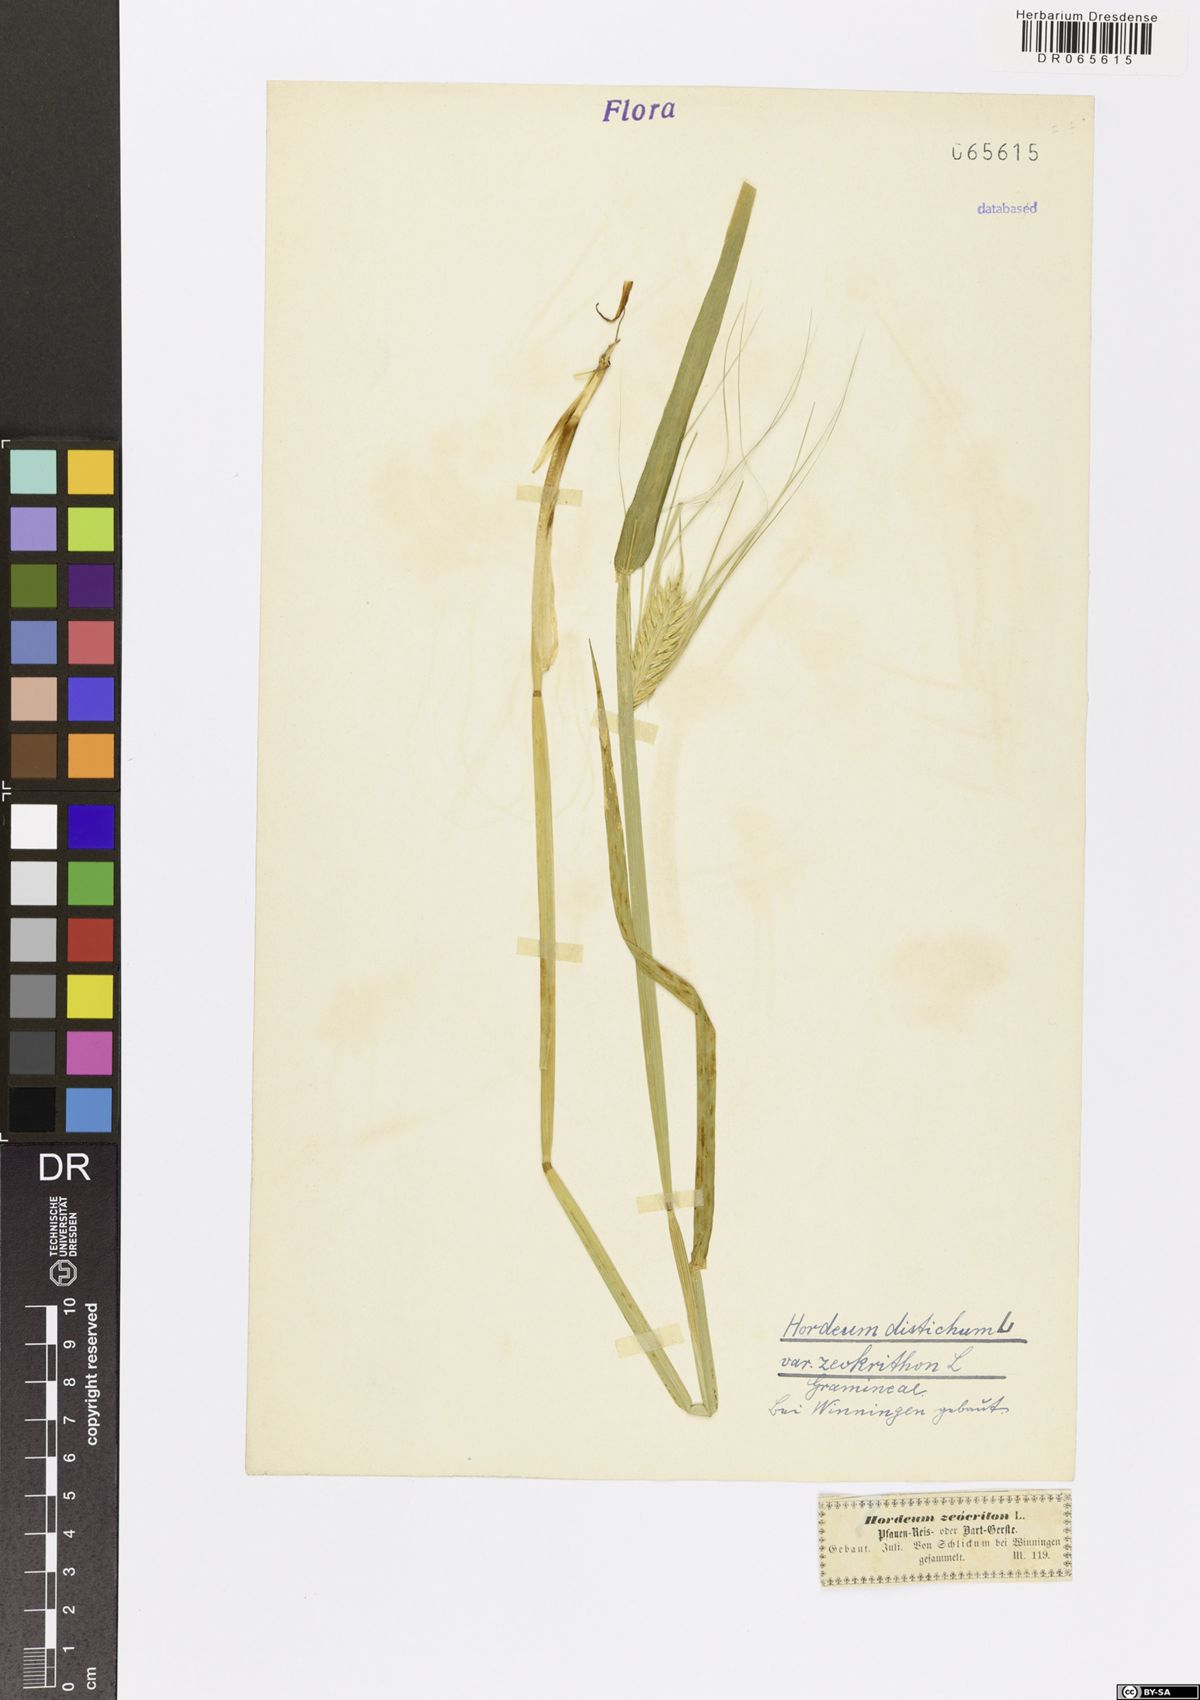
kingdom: Plantae
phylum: Tracheophyta
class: Liliopsida
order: Poales
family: Poaceae
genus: Hordeum
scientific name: Hordeum distichon
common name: Two-rowed barley
